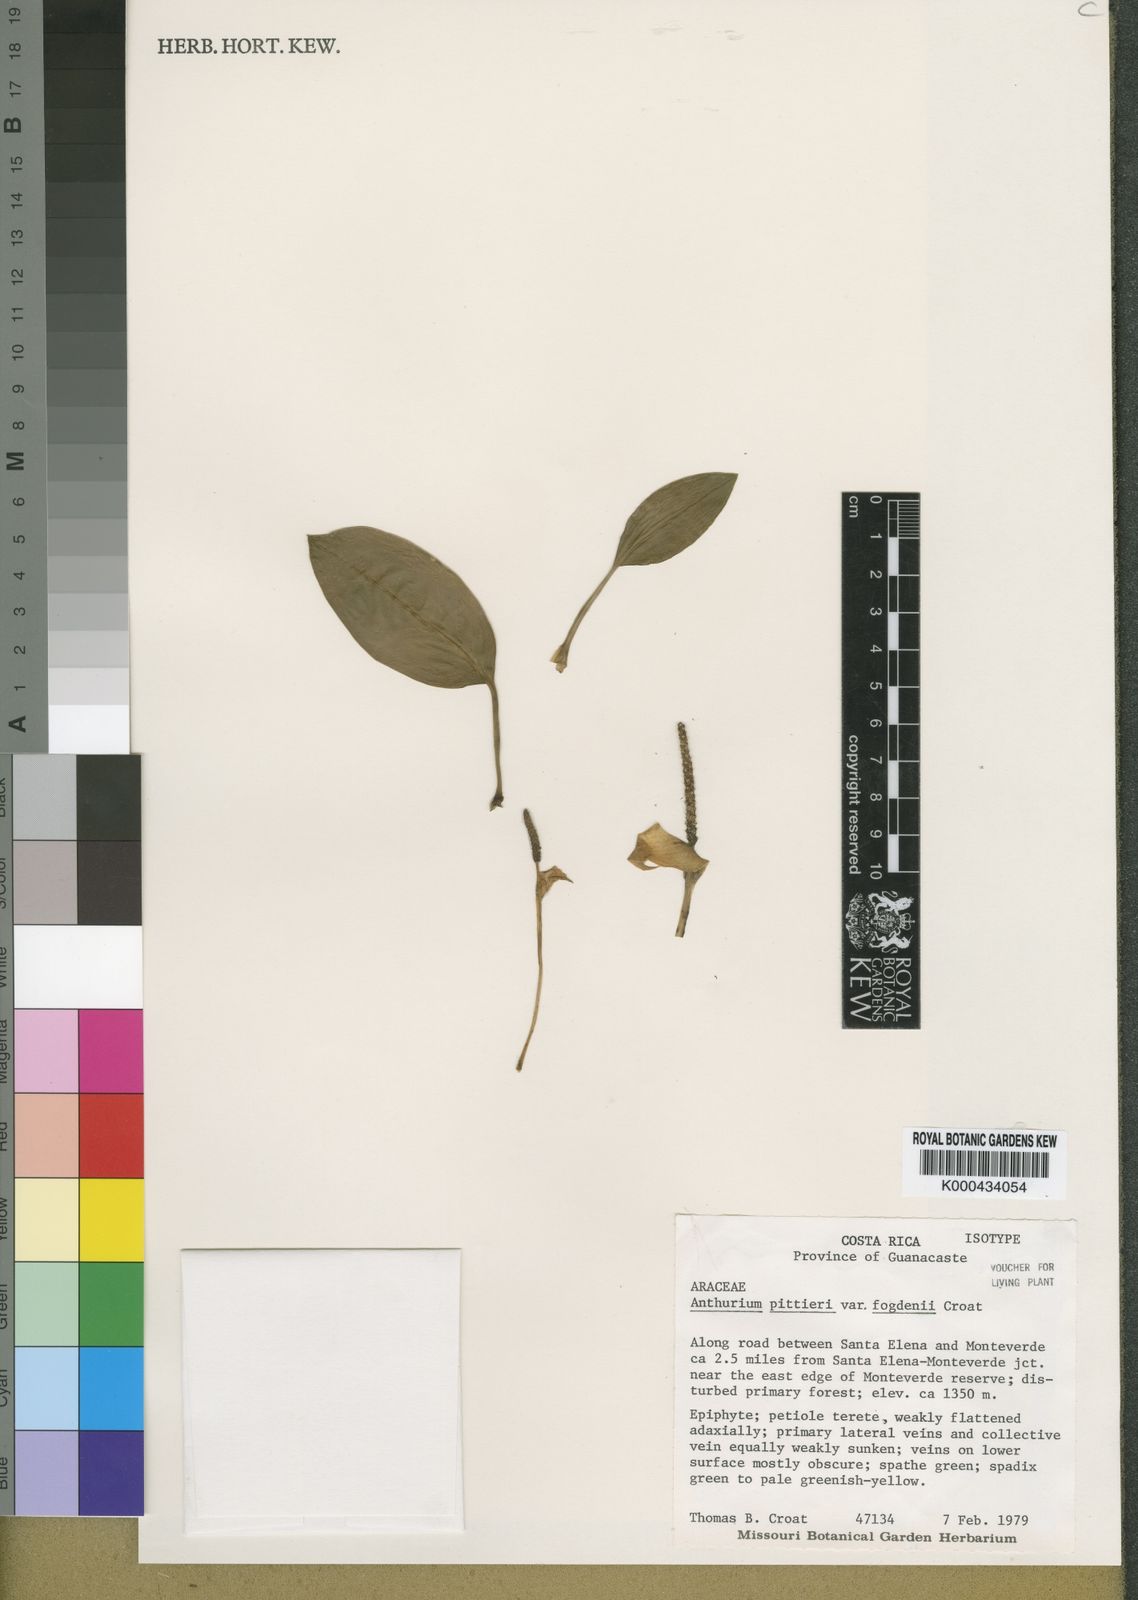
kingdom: Plantae
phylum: Tracheophyta
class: Liliopsida
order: Alismatales
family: Araceae
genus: Anthurium
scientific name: Anthurium pittieri
